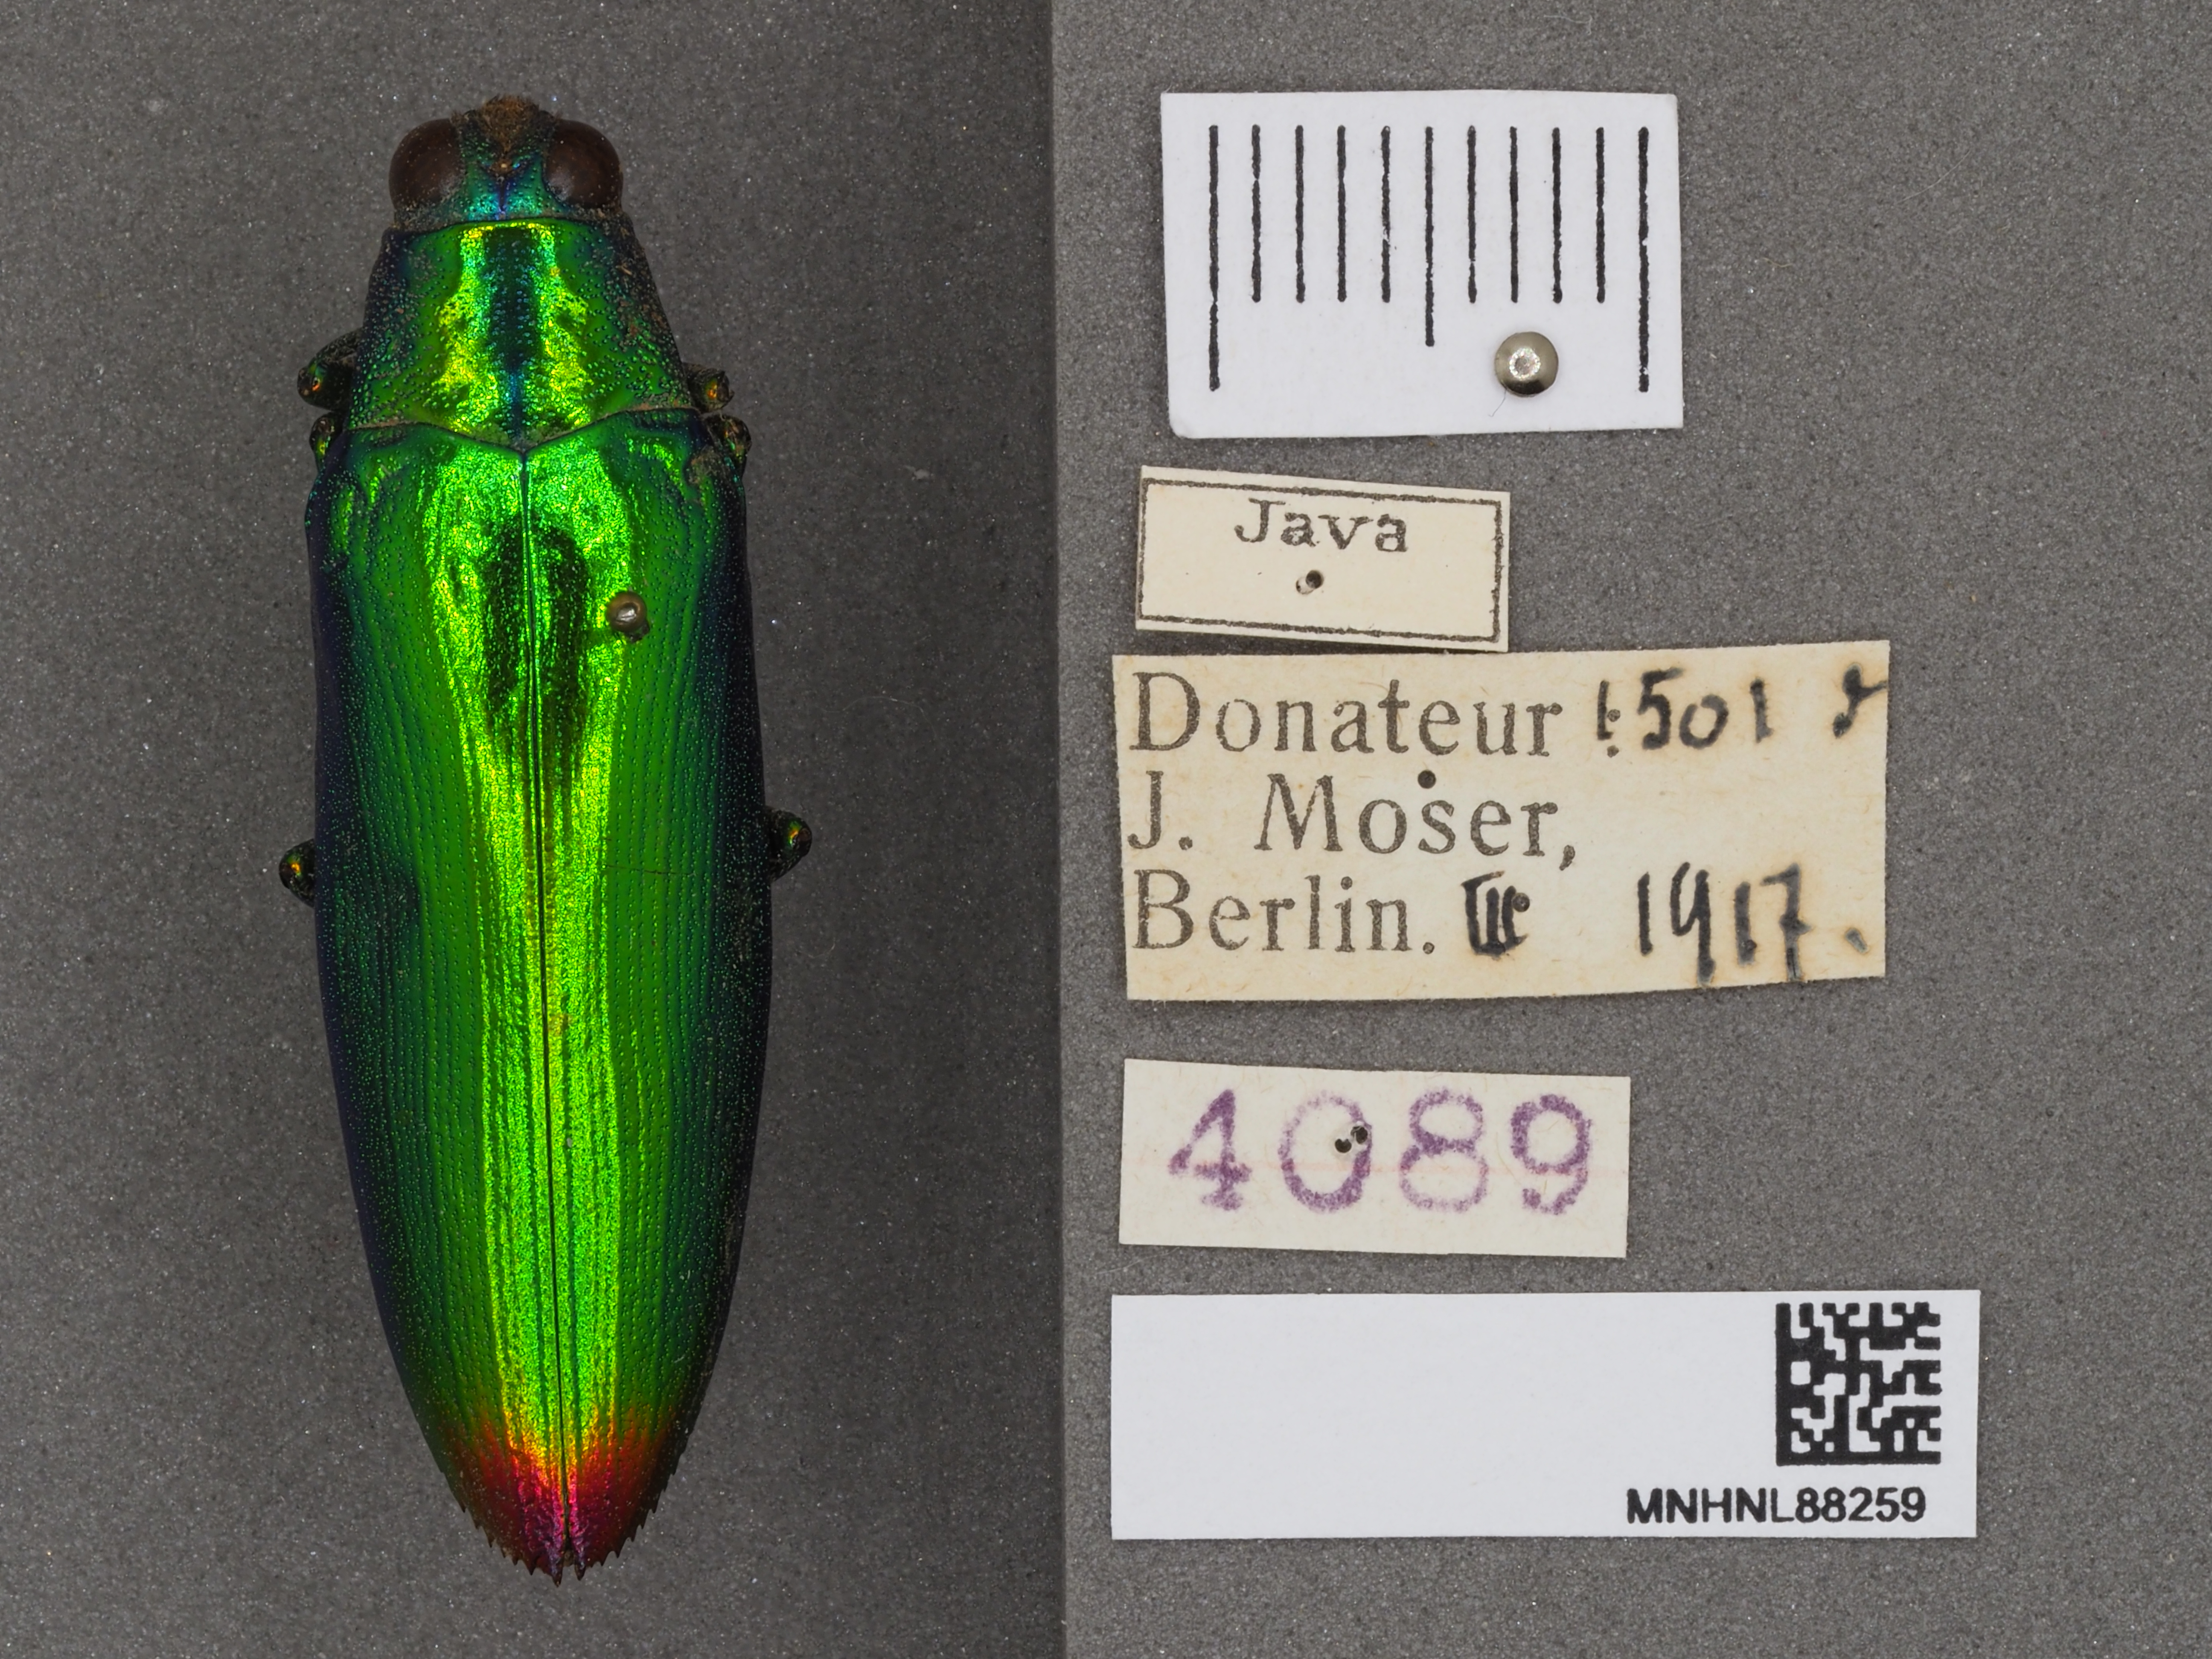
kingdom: Animalia
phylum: Arthropoda
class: Insecta
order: Coleoptera
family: Buprestidae
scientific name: Buprestidae
